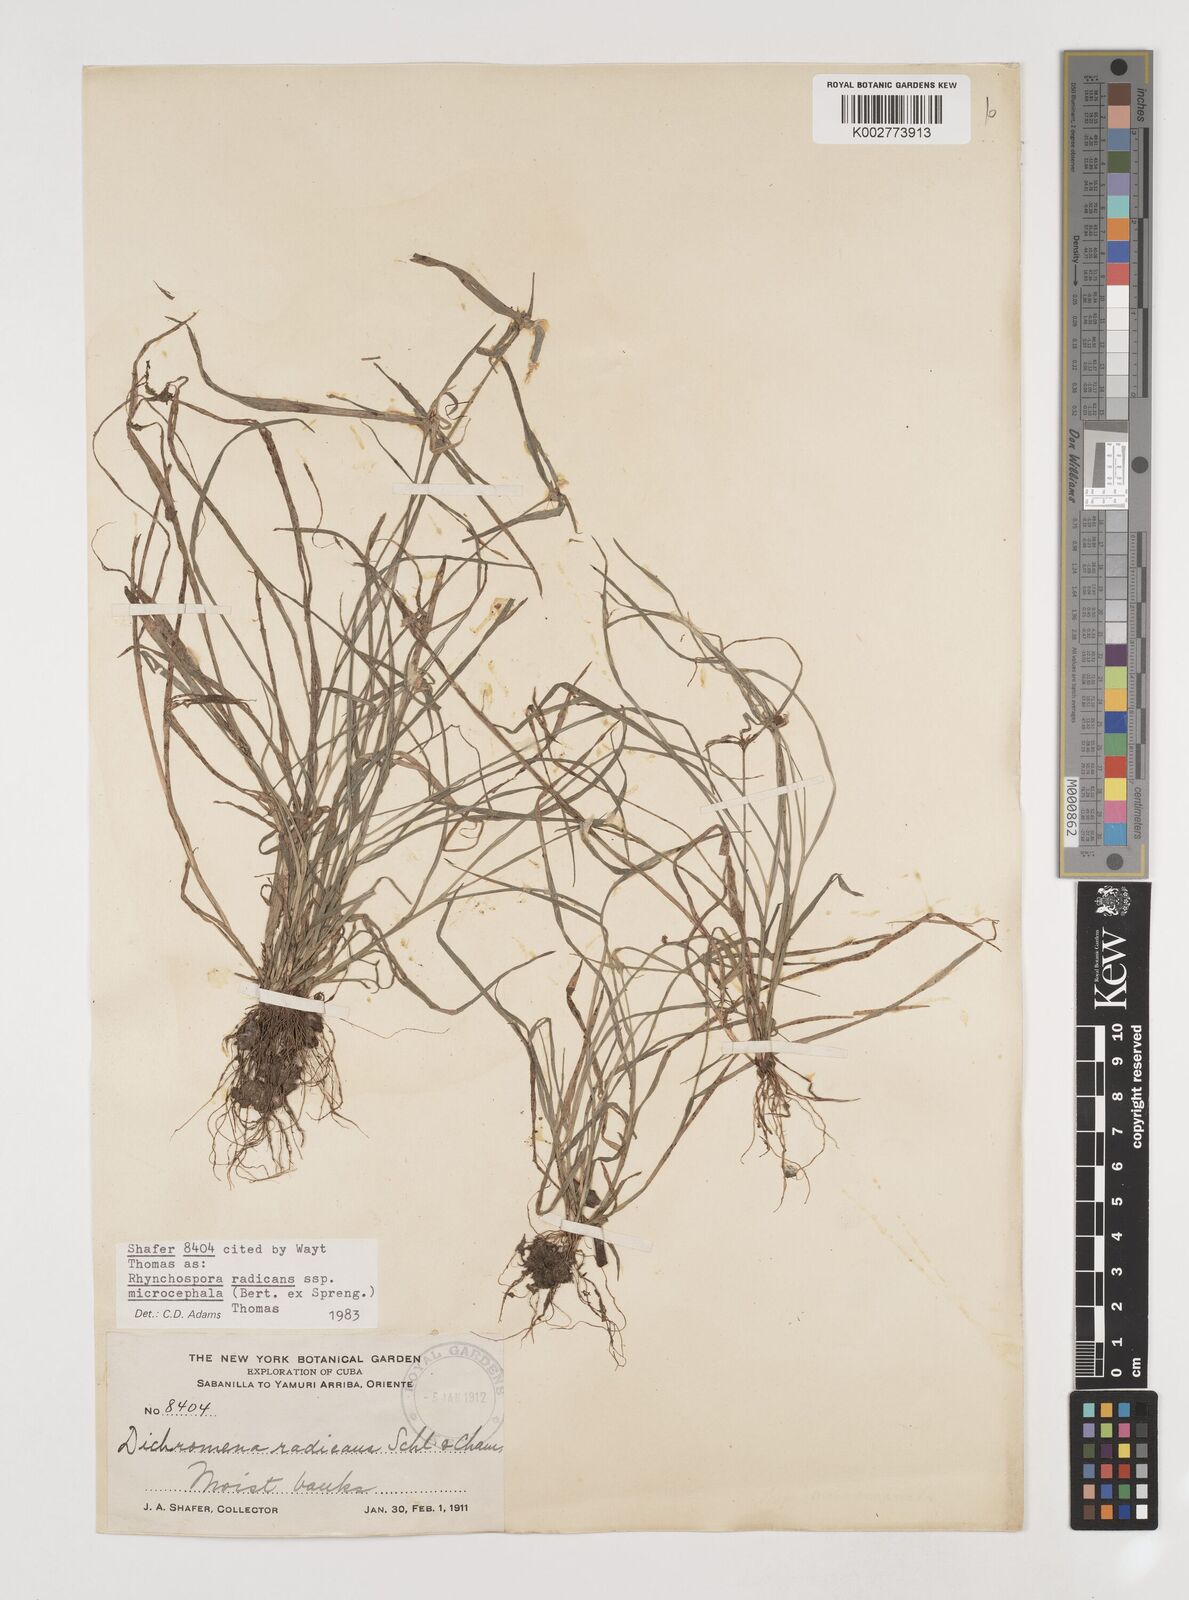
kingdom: Plantae
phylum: Tracheophyta
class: Liliopsida
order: Poales
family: Cyperaceae
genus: Rhynchospora
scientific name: Rhynchospora radicans
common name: Tropical whitetop
